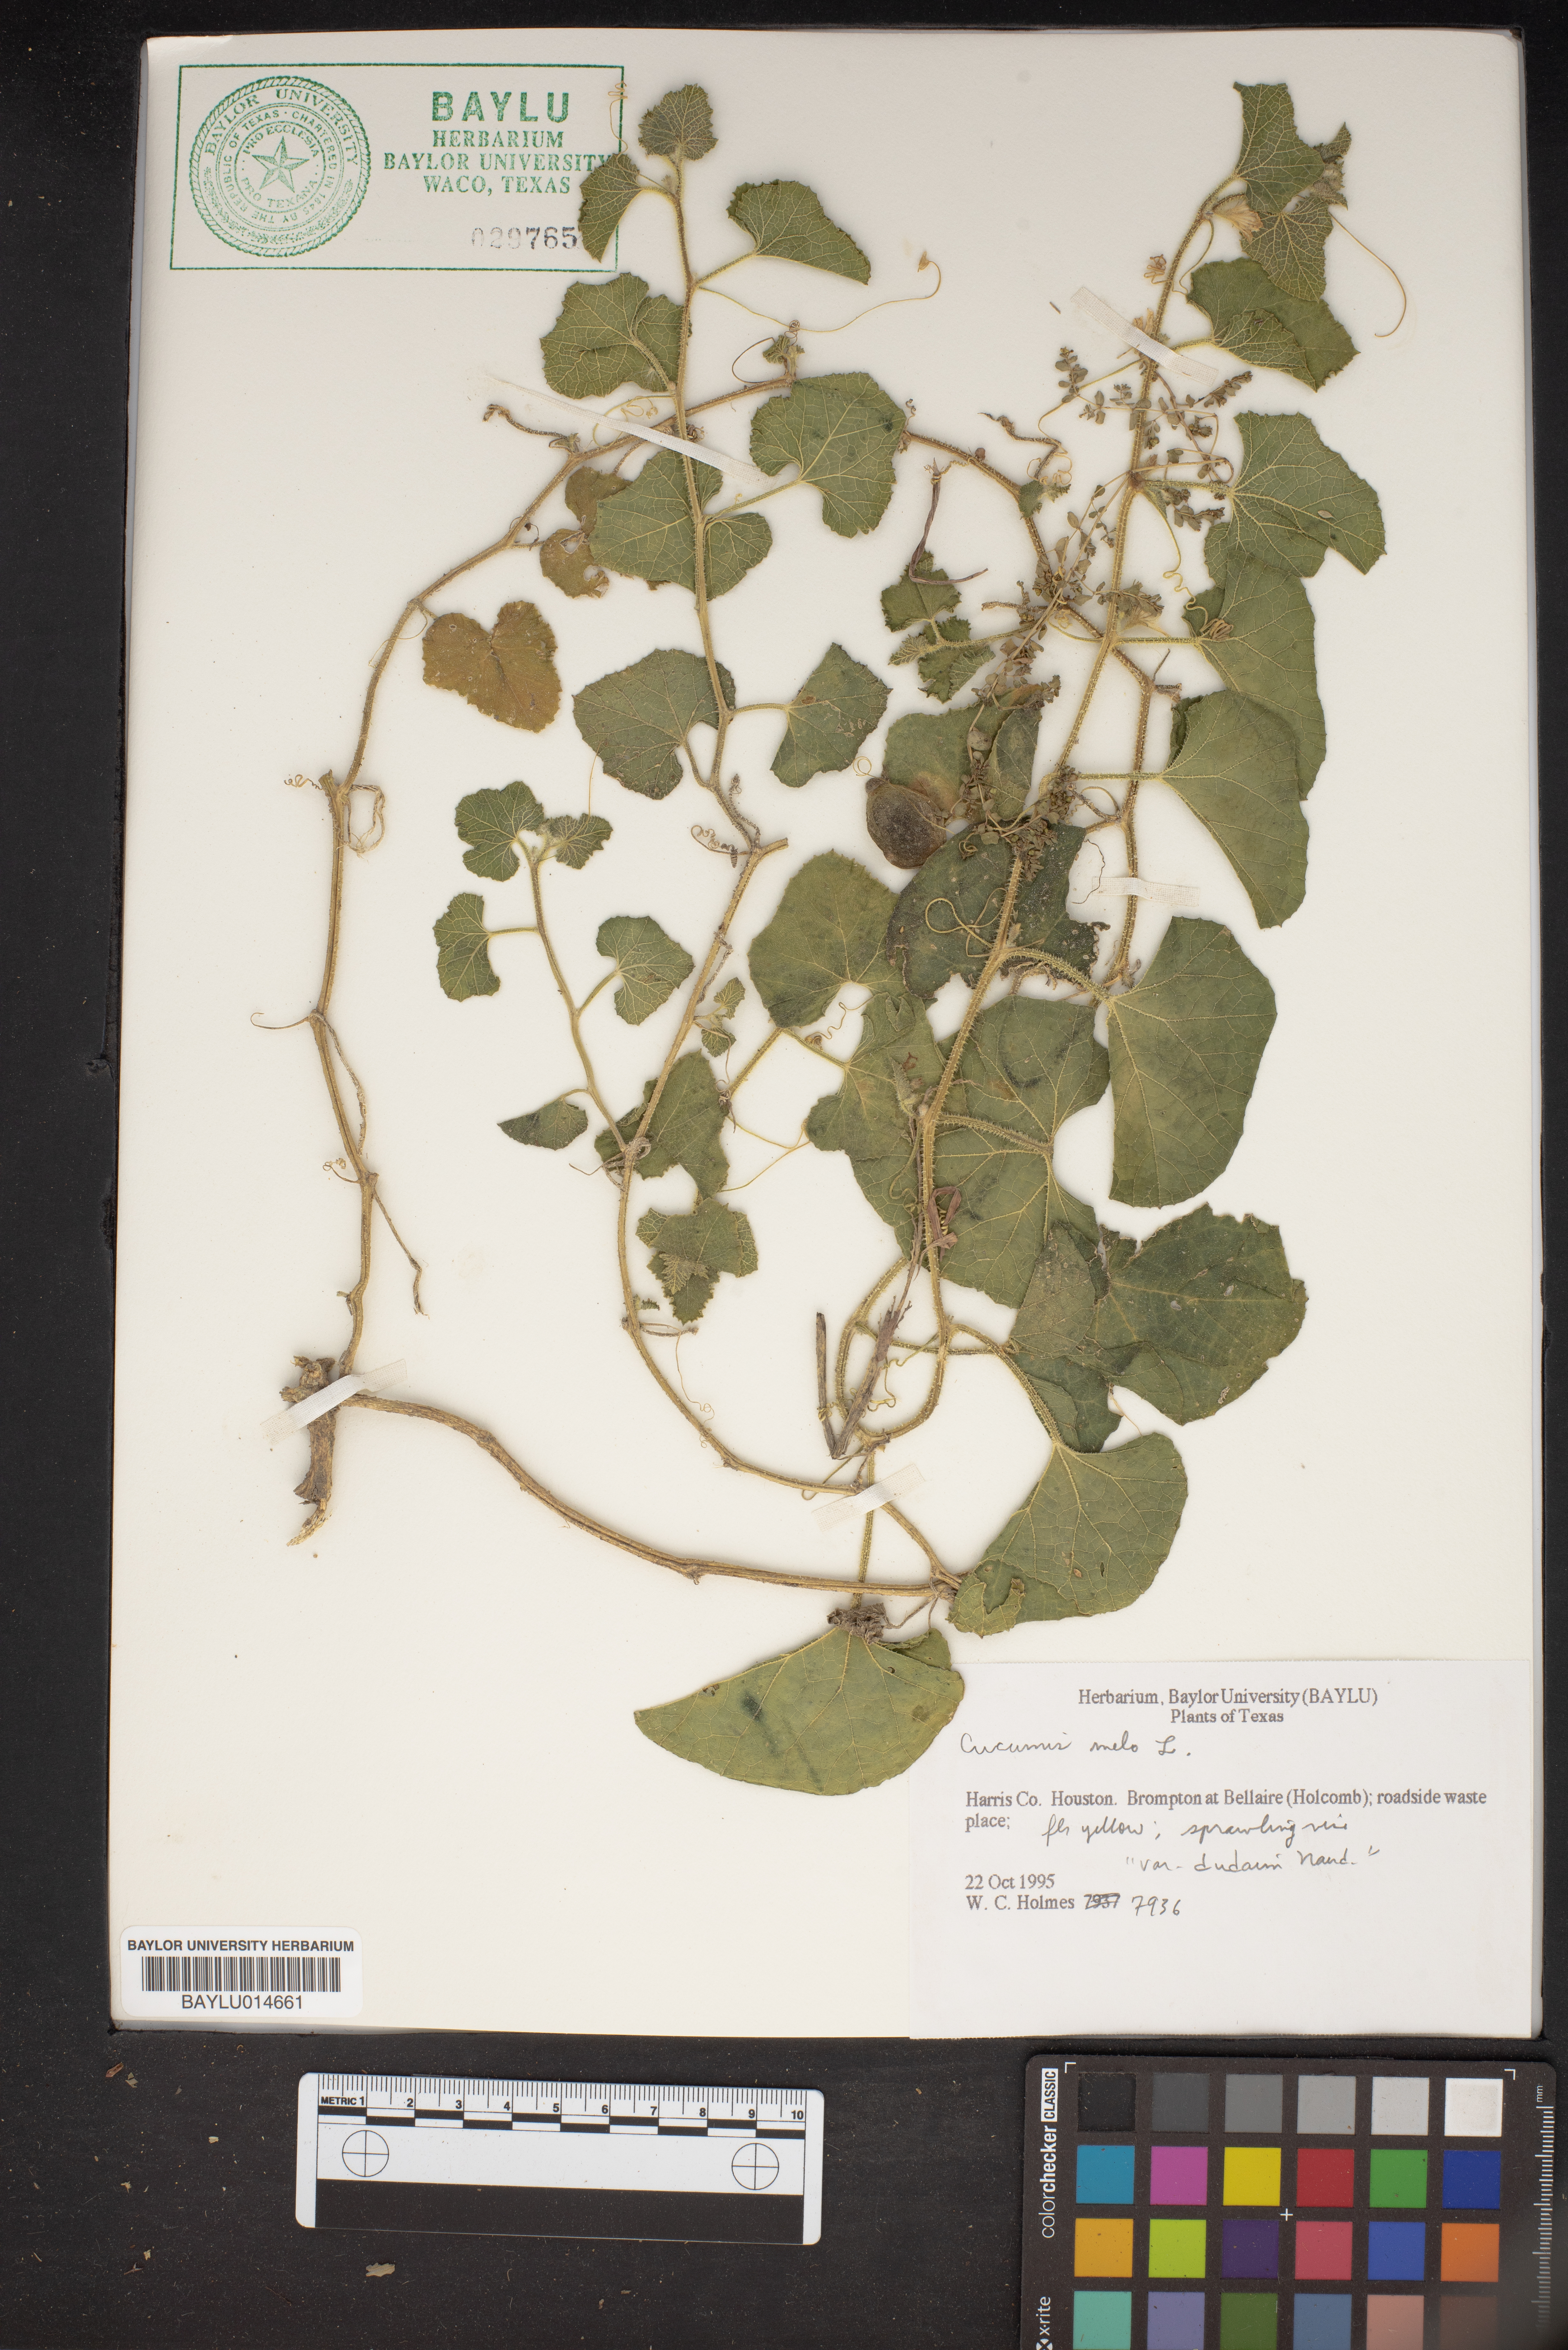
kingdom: Plantae
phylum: Tracheophyta
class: Magnoliopsida
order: Cucurbitales
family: Cucurbitaceae
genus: Cucumis
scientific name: Cucumis melo
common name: Melon
